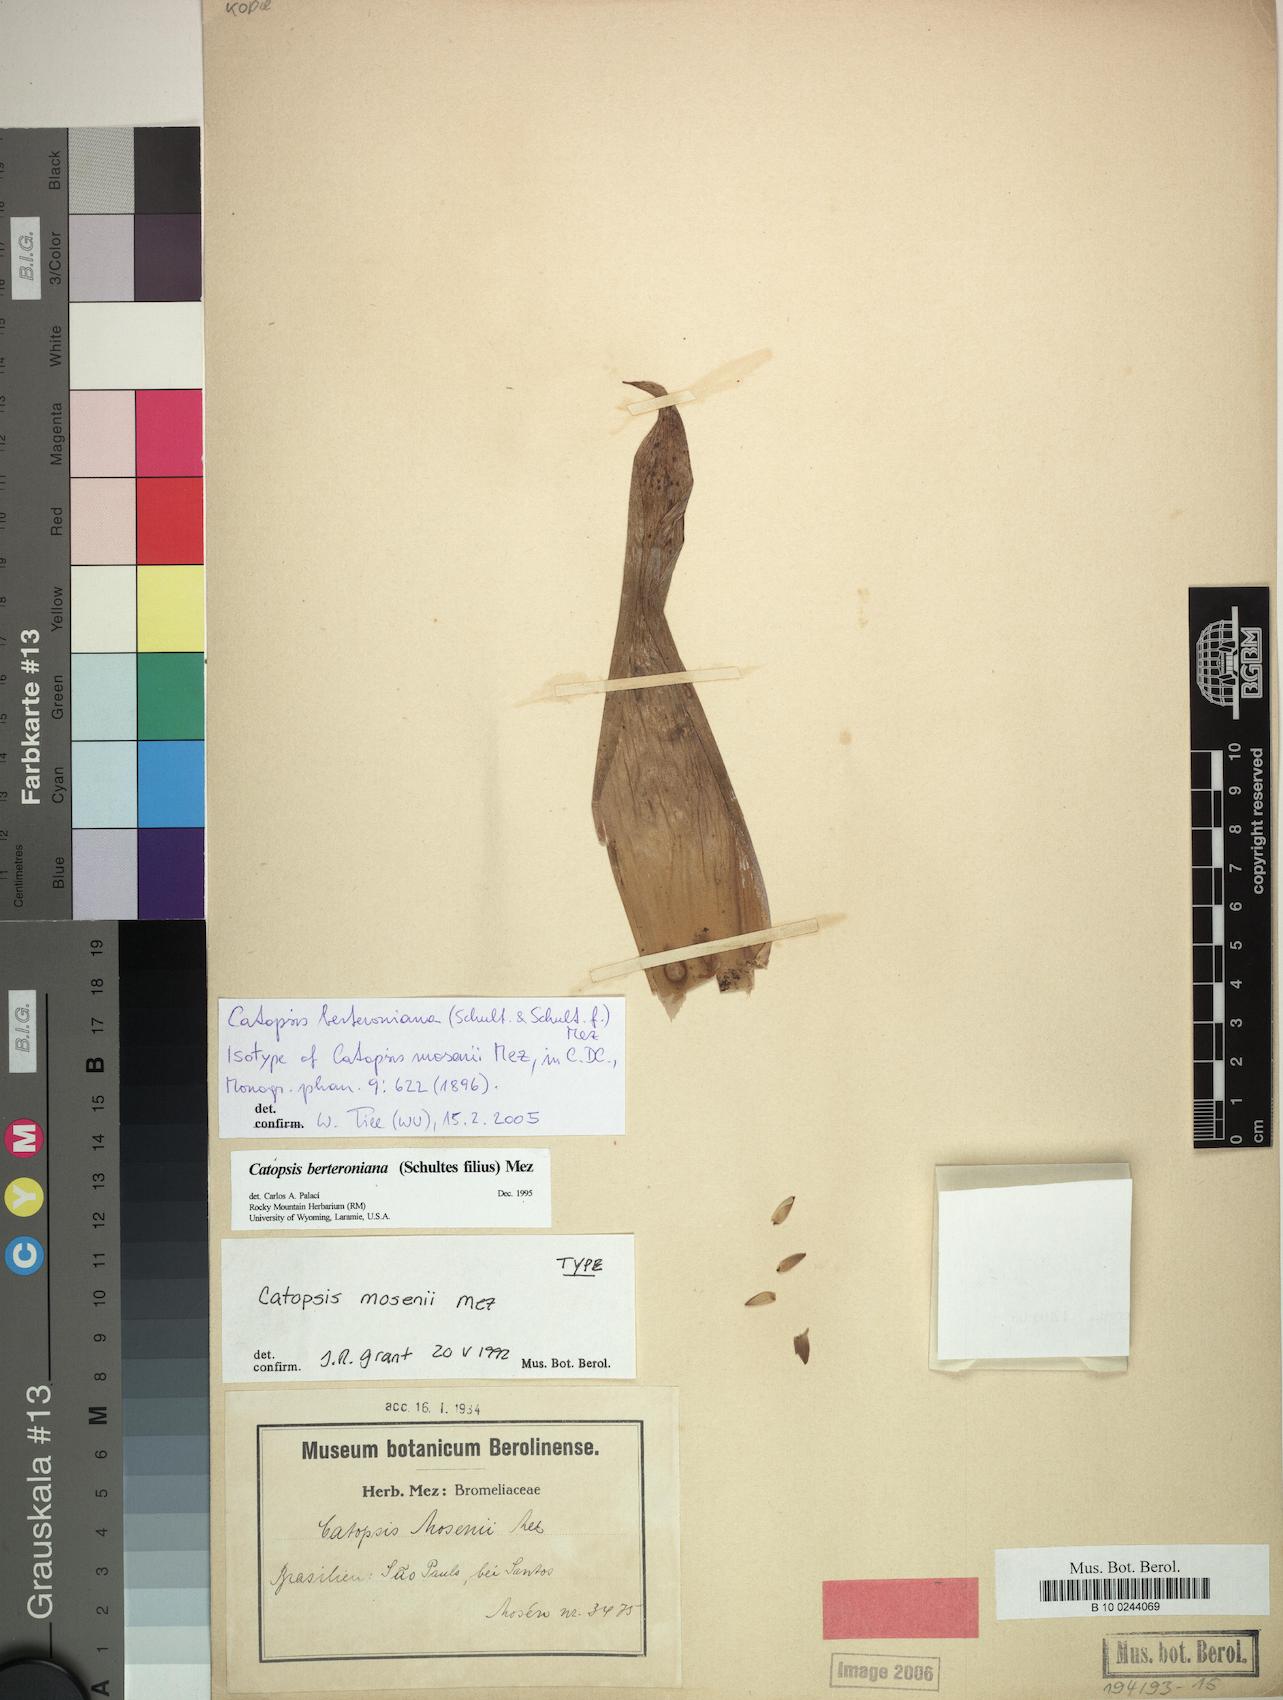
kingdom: Plantae
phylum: Tracheophyta
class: Liliopsida
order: Poales
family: Bromeliaceae
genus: Catopsis
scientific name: Catopsis berteroniana
